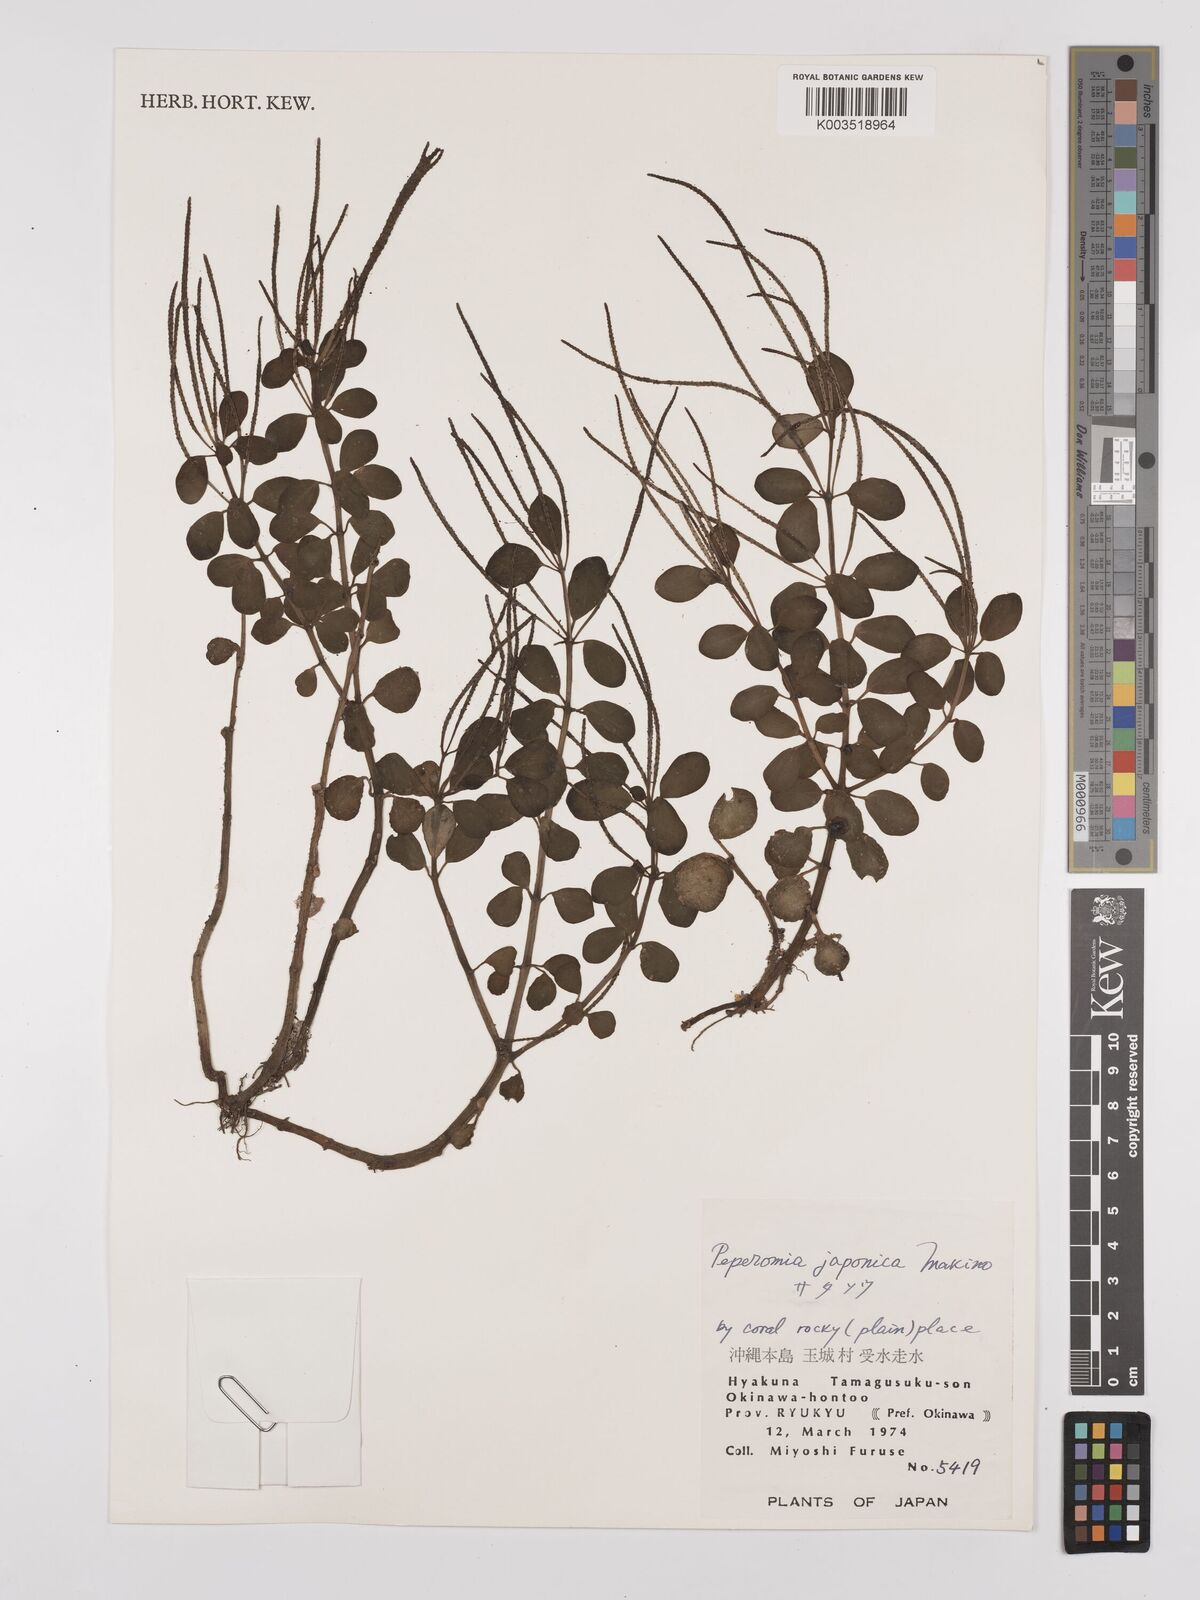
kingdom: Plantae
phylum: Tracheophyta
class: Magnoliopsida
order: Piperales
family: Piperaceae
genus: Peperomia
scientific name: Peperomia japonica
